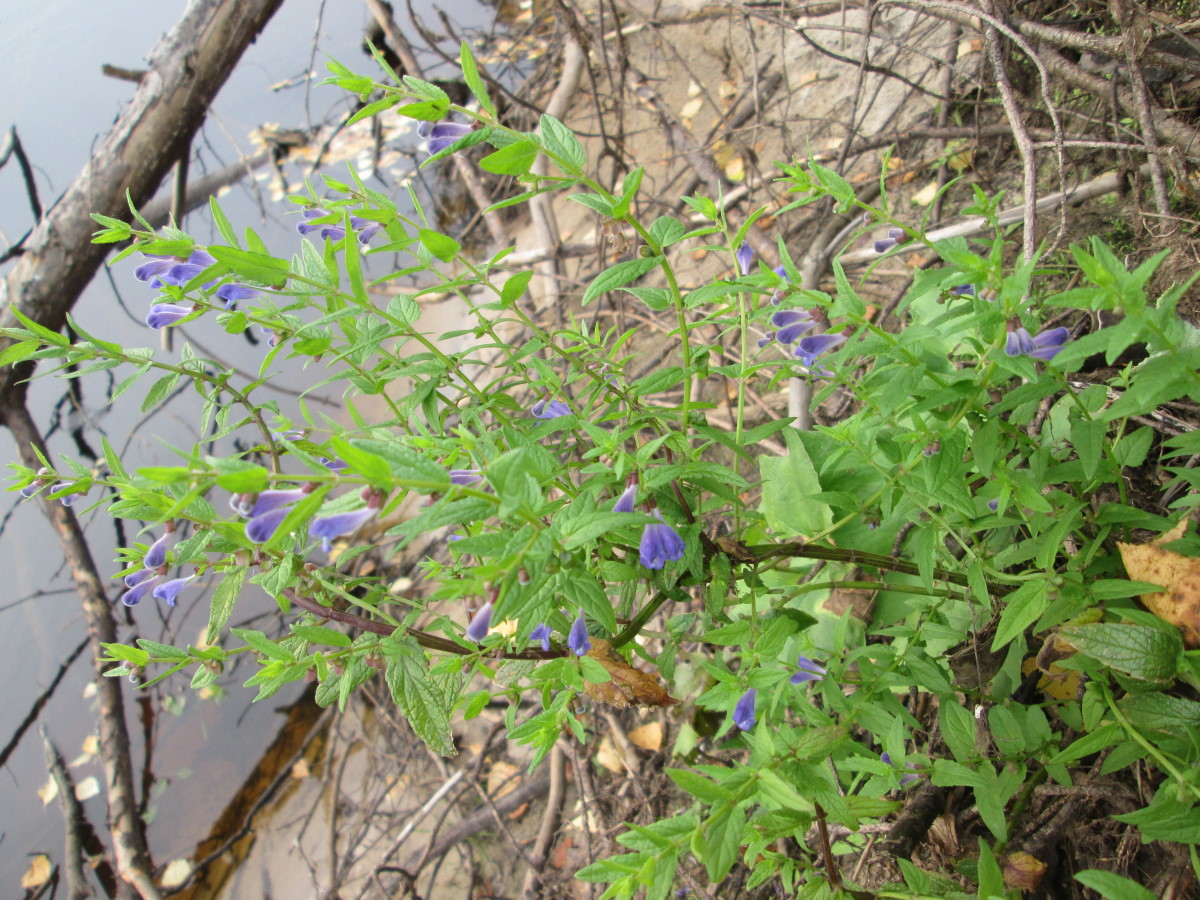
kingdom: Plantae
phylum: Tracheophyta
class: Magnoliopsida
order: Lamiales
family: Lamiaceae
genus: Scutellaria
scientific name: Scutellaria galericulata
